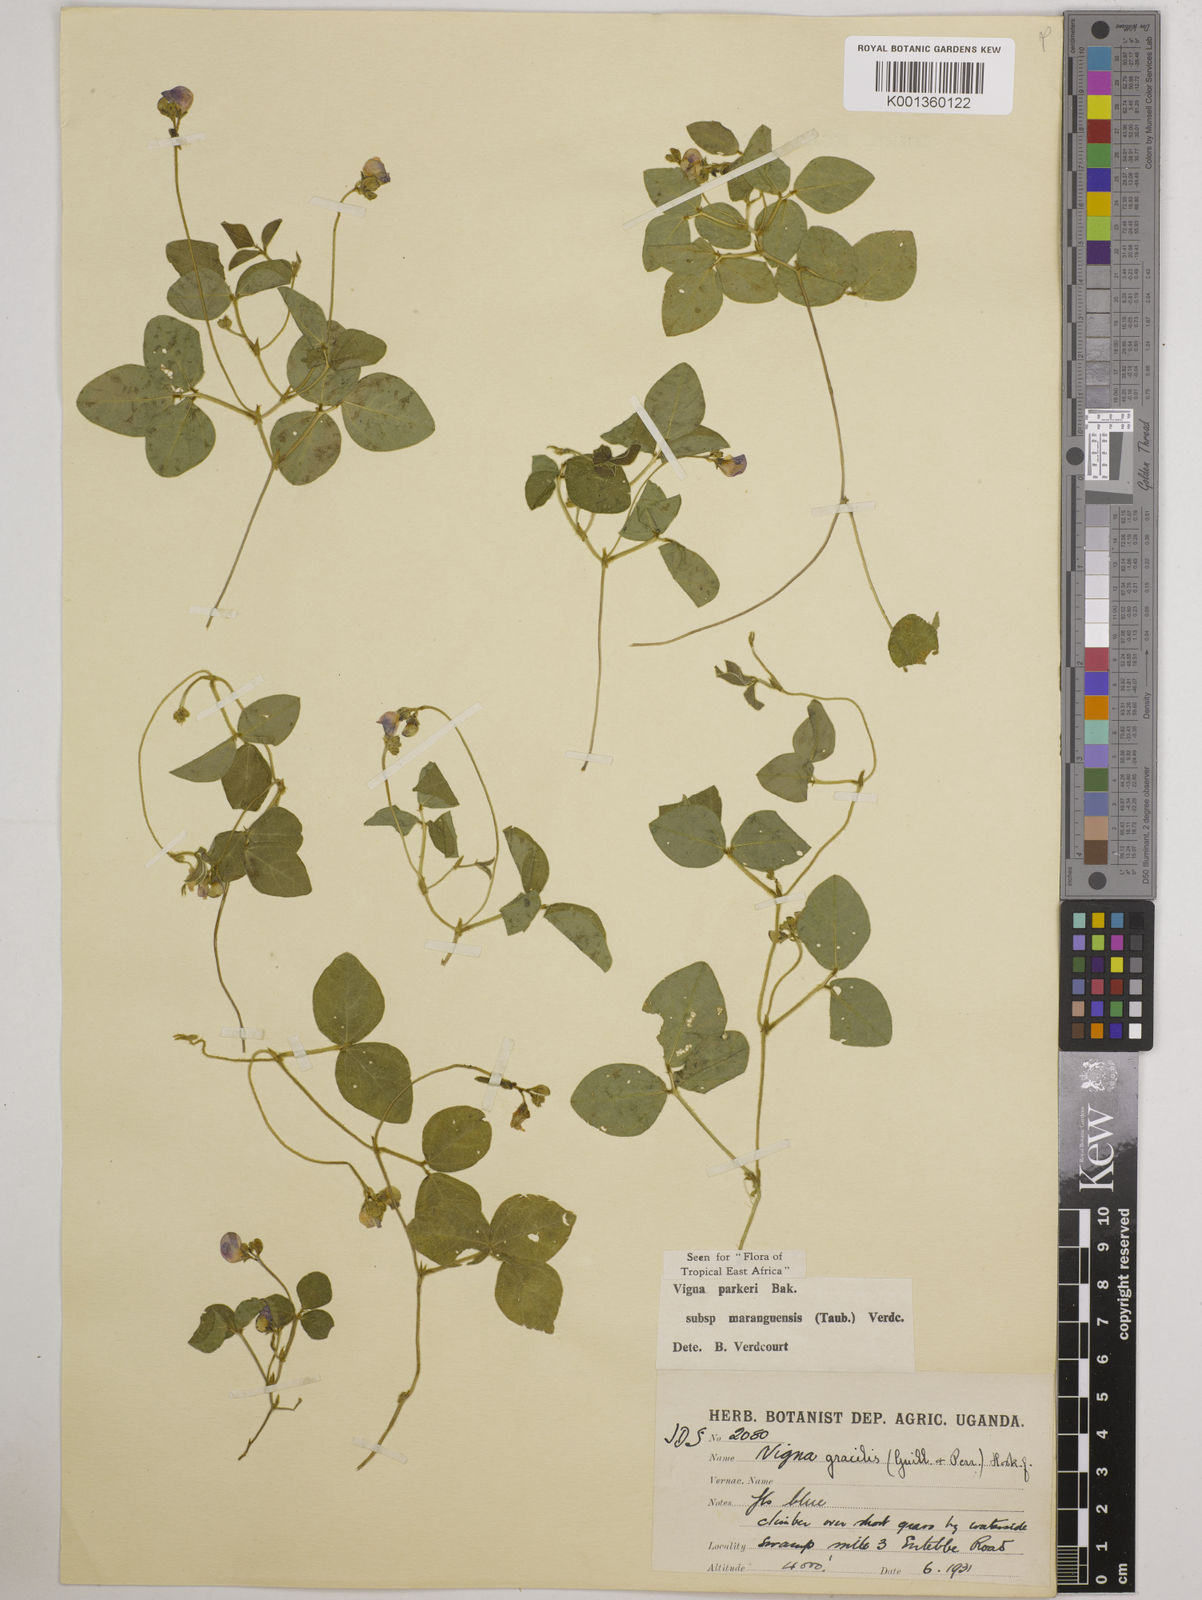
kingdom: Plantae
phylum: Tracheophyta
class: Magnoliopsida
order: Fabales
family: Fabaceae
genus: Vigna
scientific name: Vigna
